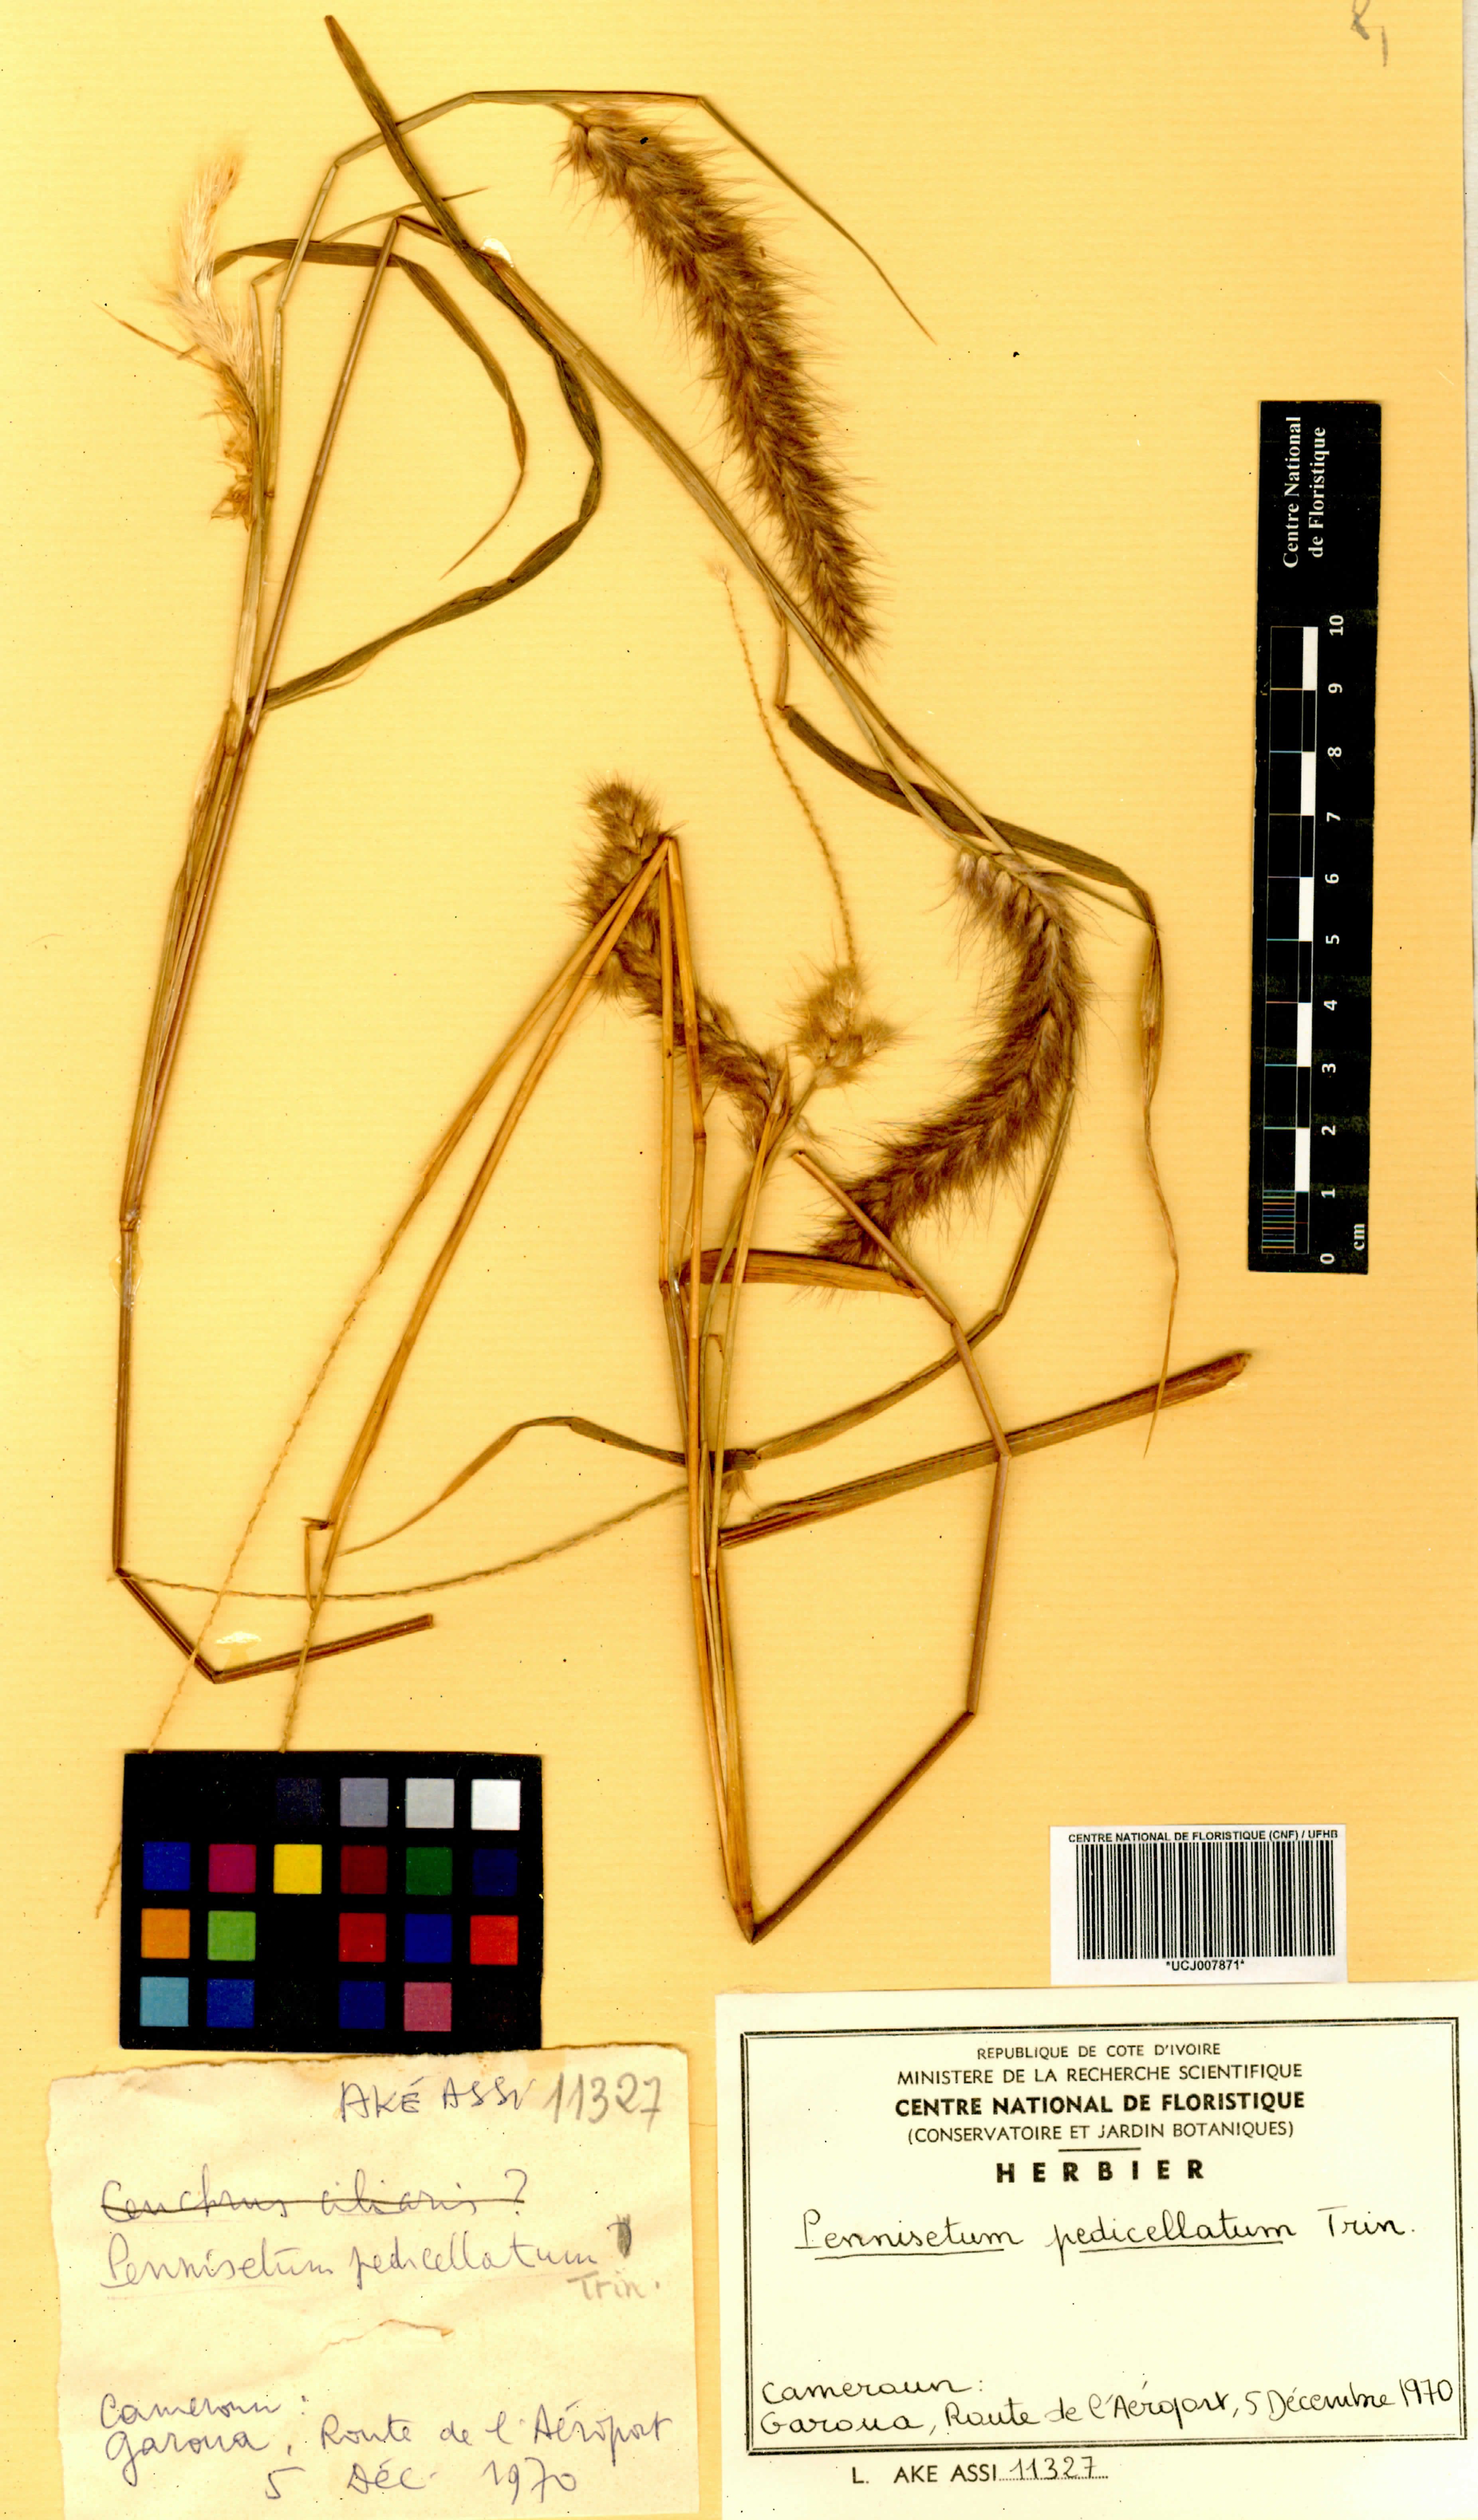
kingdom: Plantae
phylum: Tracheophyta
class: Liliopsida
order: Poales
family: Poaceae
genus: Cenchrus
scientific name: Cenchrus pedicellatus
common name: Hairy fountain grass
